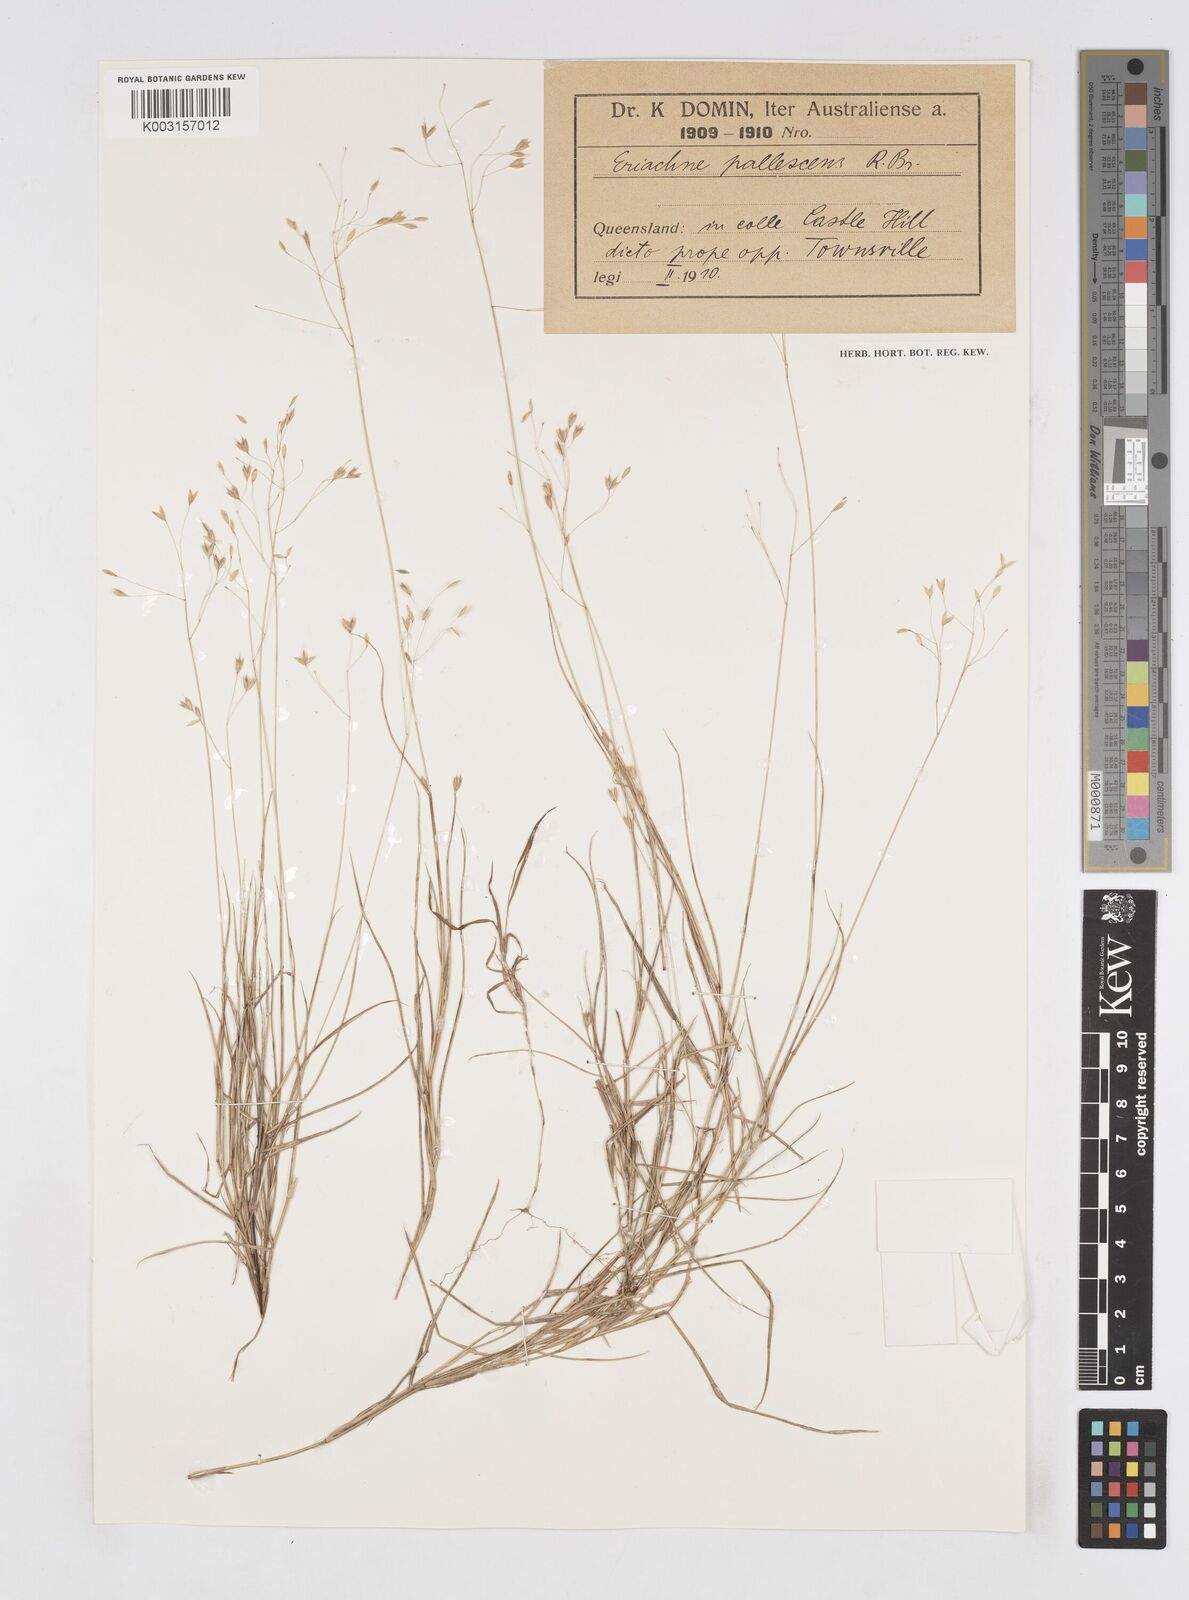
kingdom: Plantae
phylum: Tracheophyta
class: Liliopsida
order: Poales
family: Poaceae
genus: Eriachne
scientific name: Eriachne pallescens
